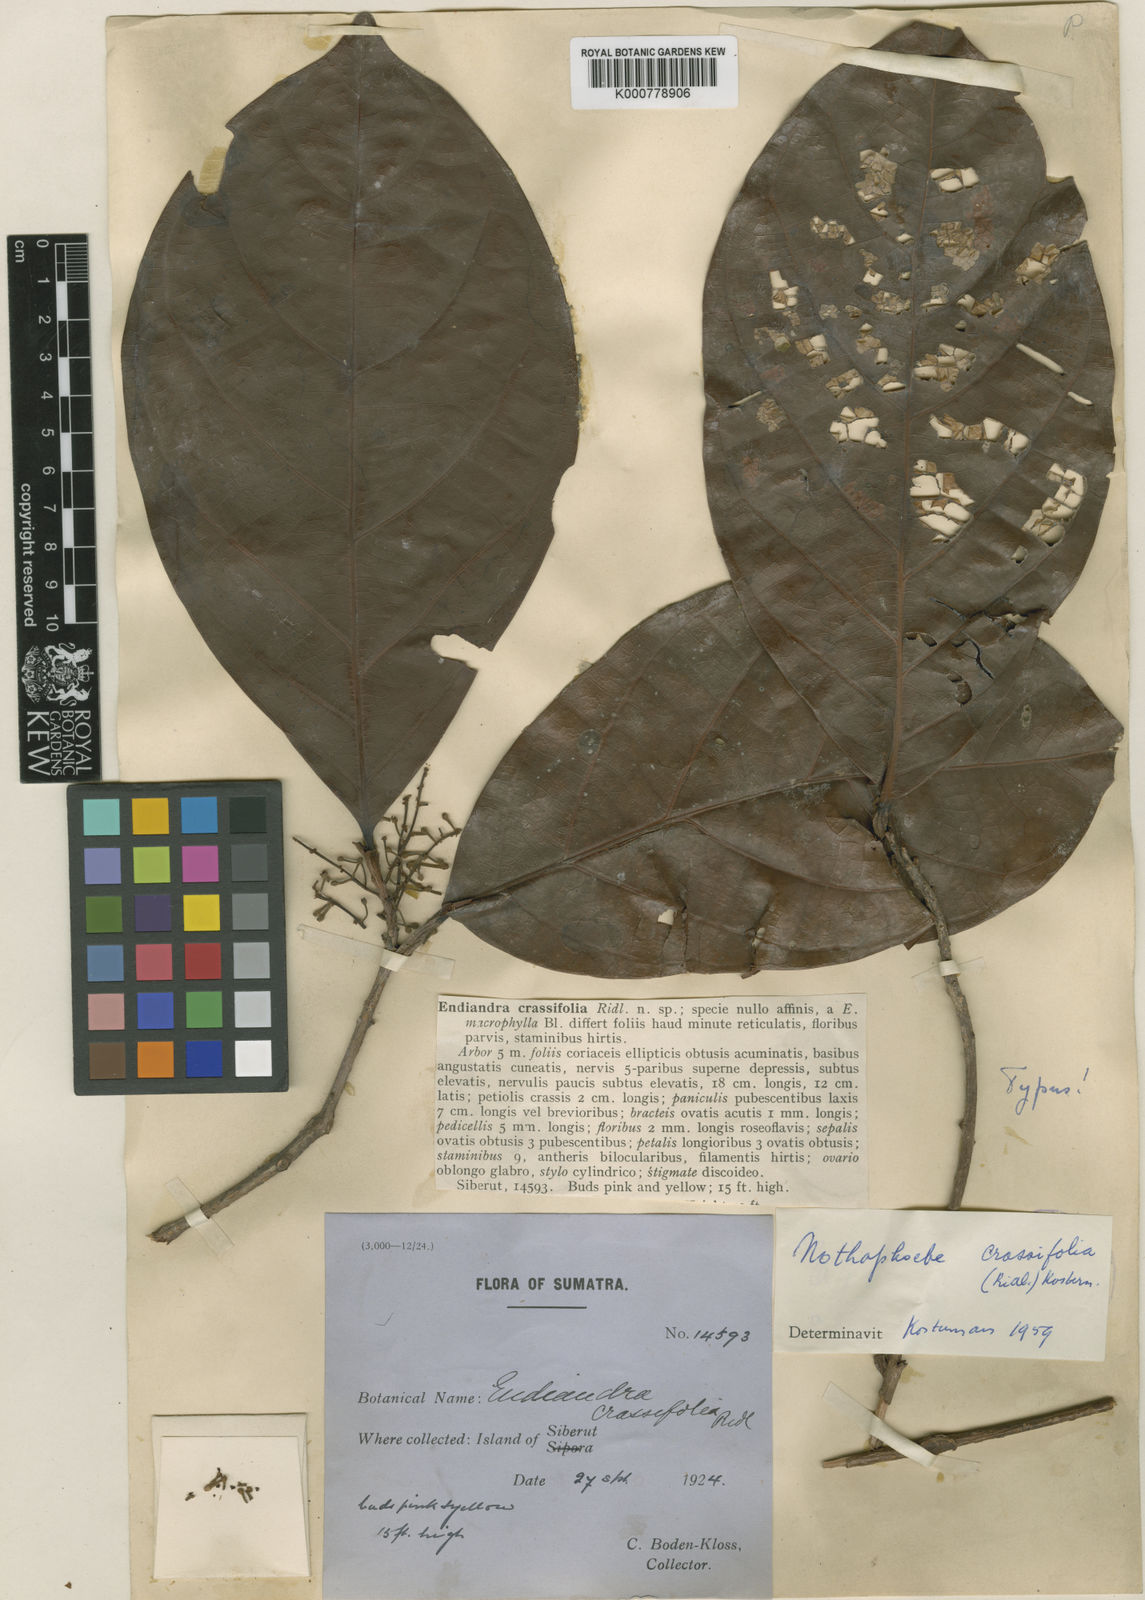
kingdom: Plantae
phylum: Tracheophyta
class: Magnoliopsida
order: Laurales
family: Lauraceae
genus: Nothaphoebe
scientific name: Nothaphoebe crassifolia
